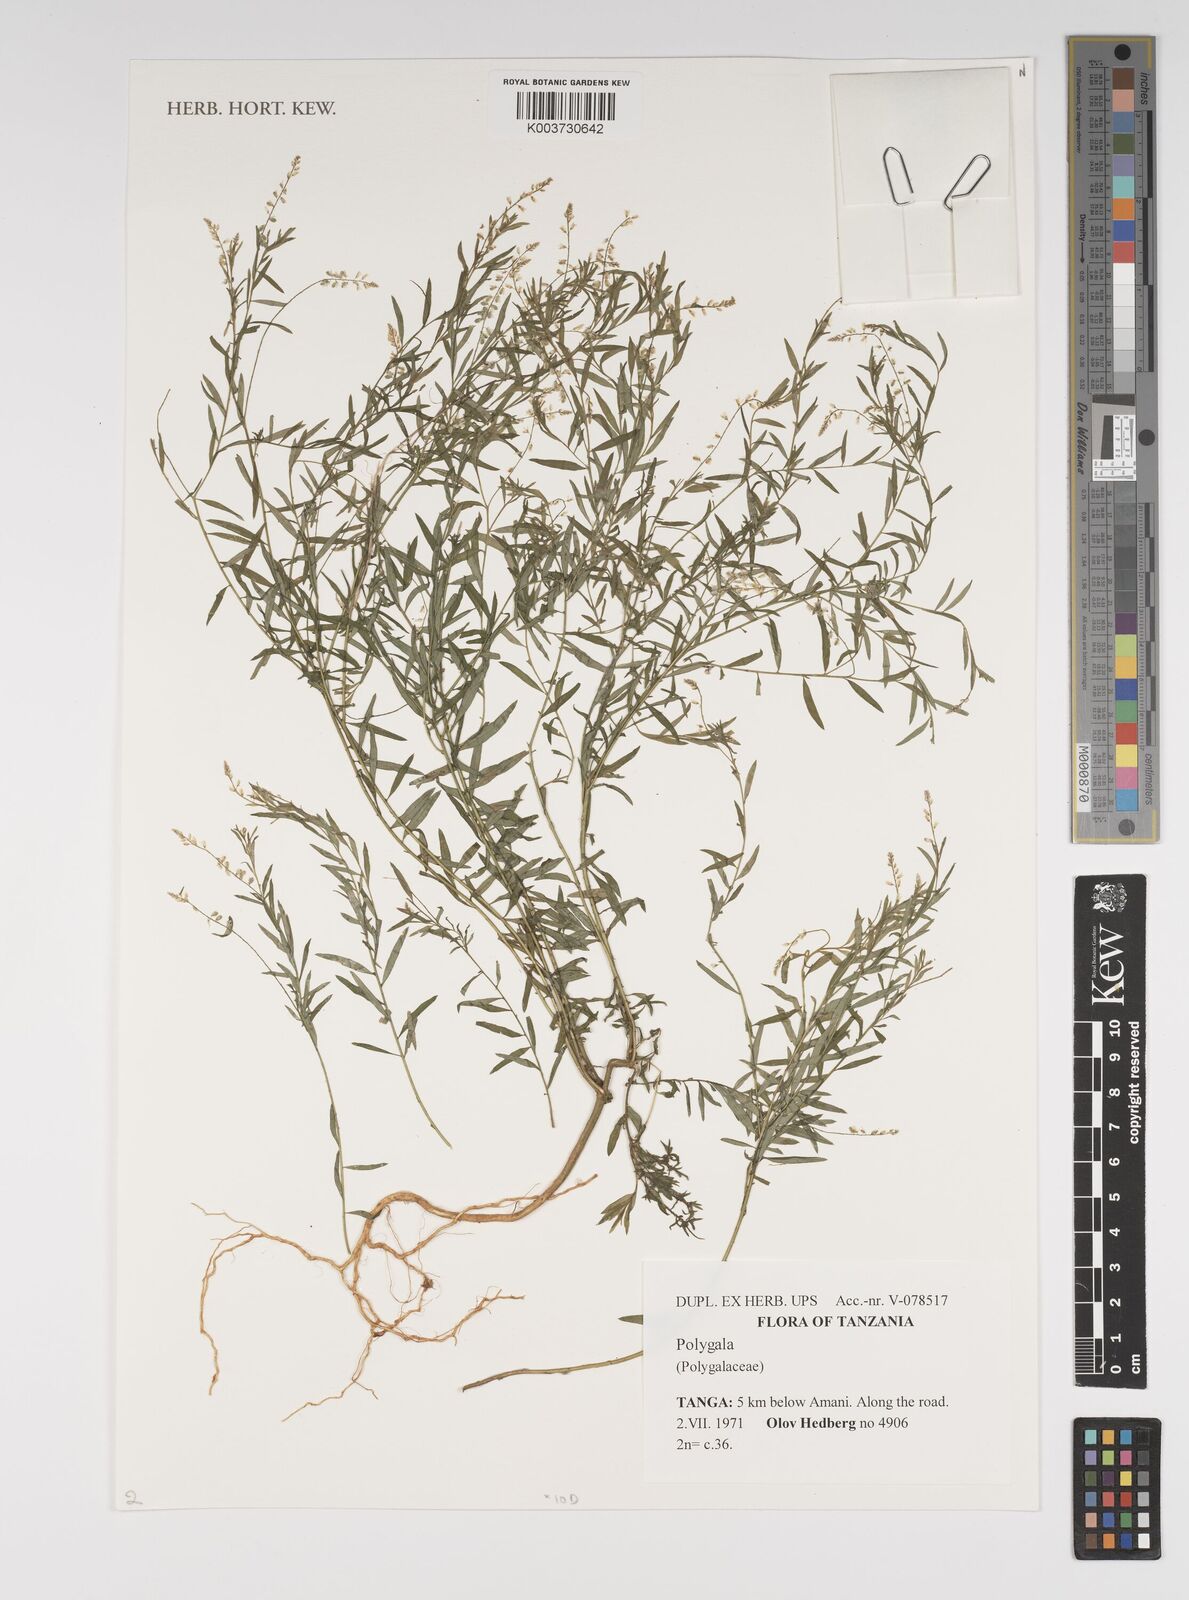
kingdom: Plantae
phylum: Tracheophyta
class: Magnoliopsida
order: Fabales
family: Polygalaceae
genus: Polygala
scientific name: Polygala
